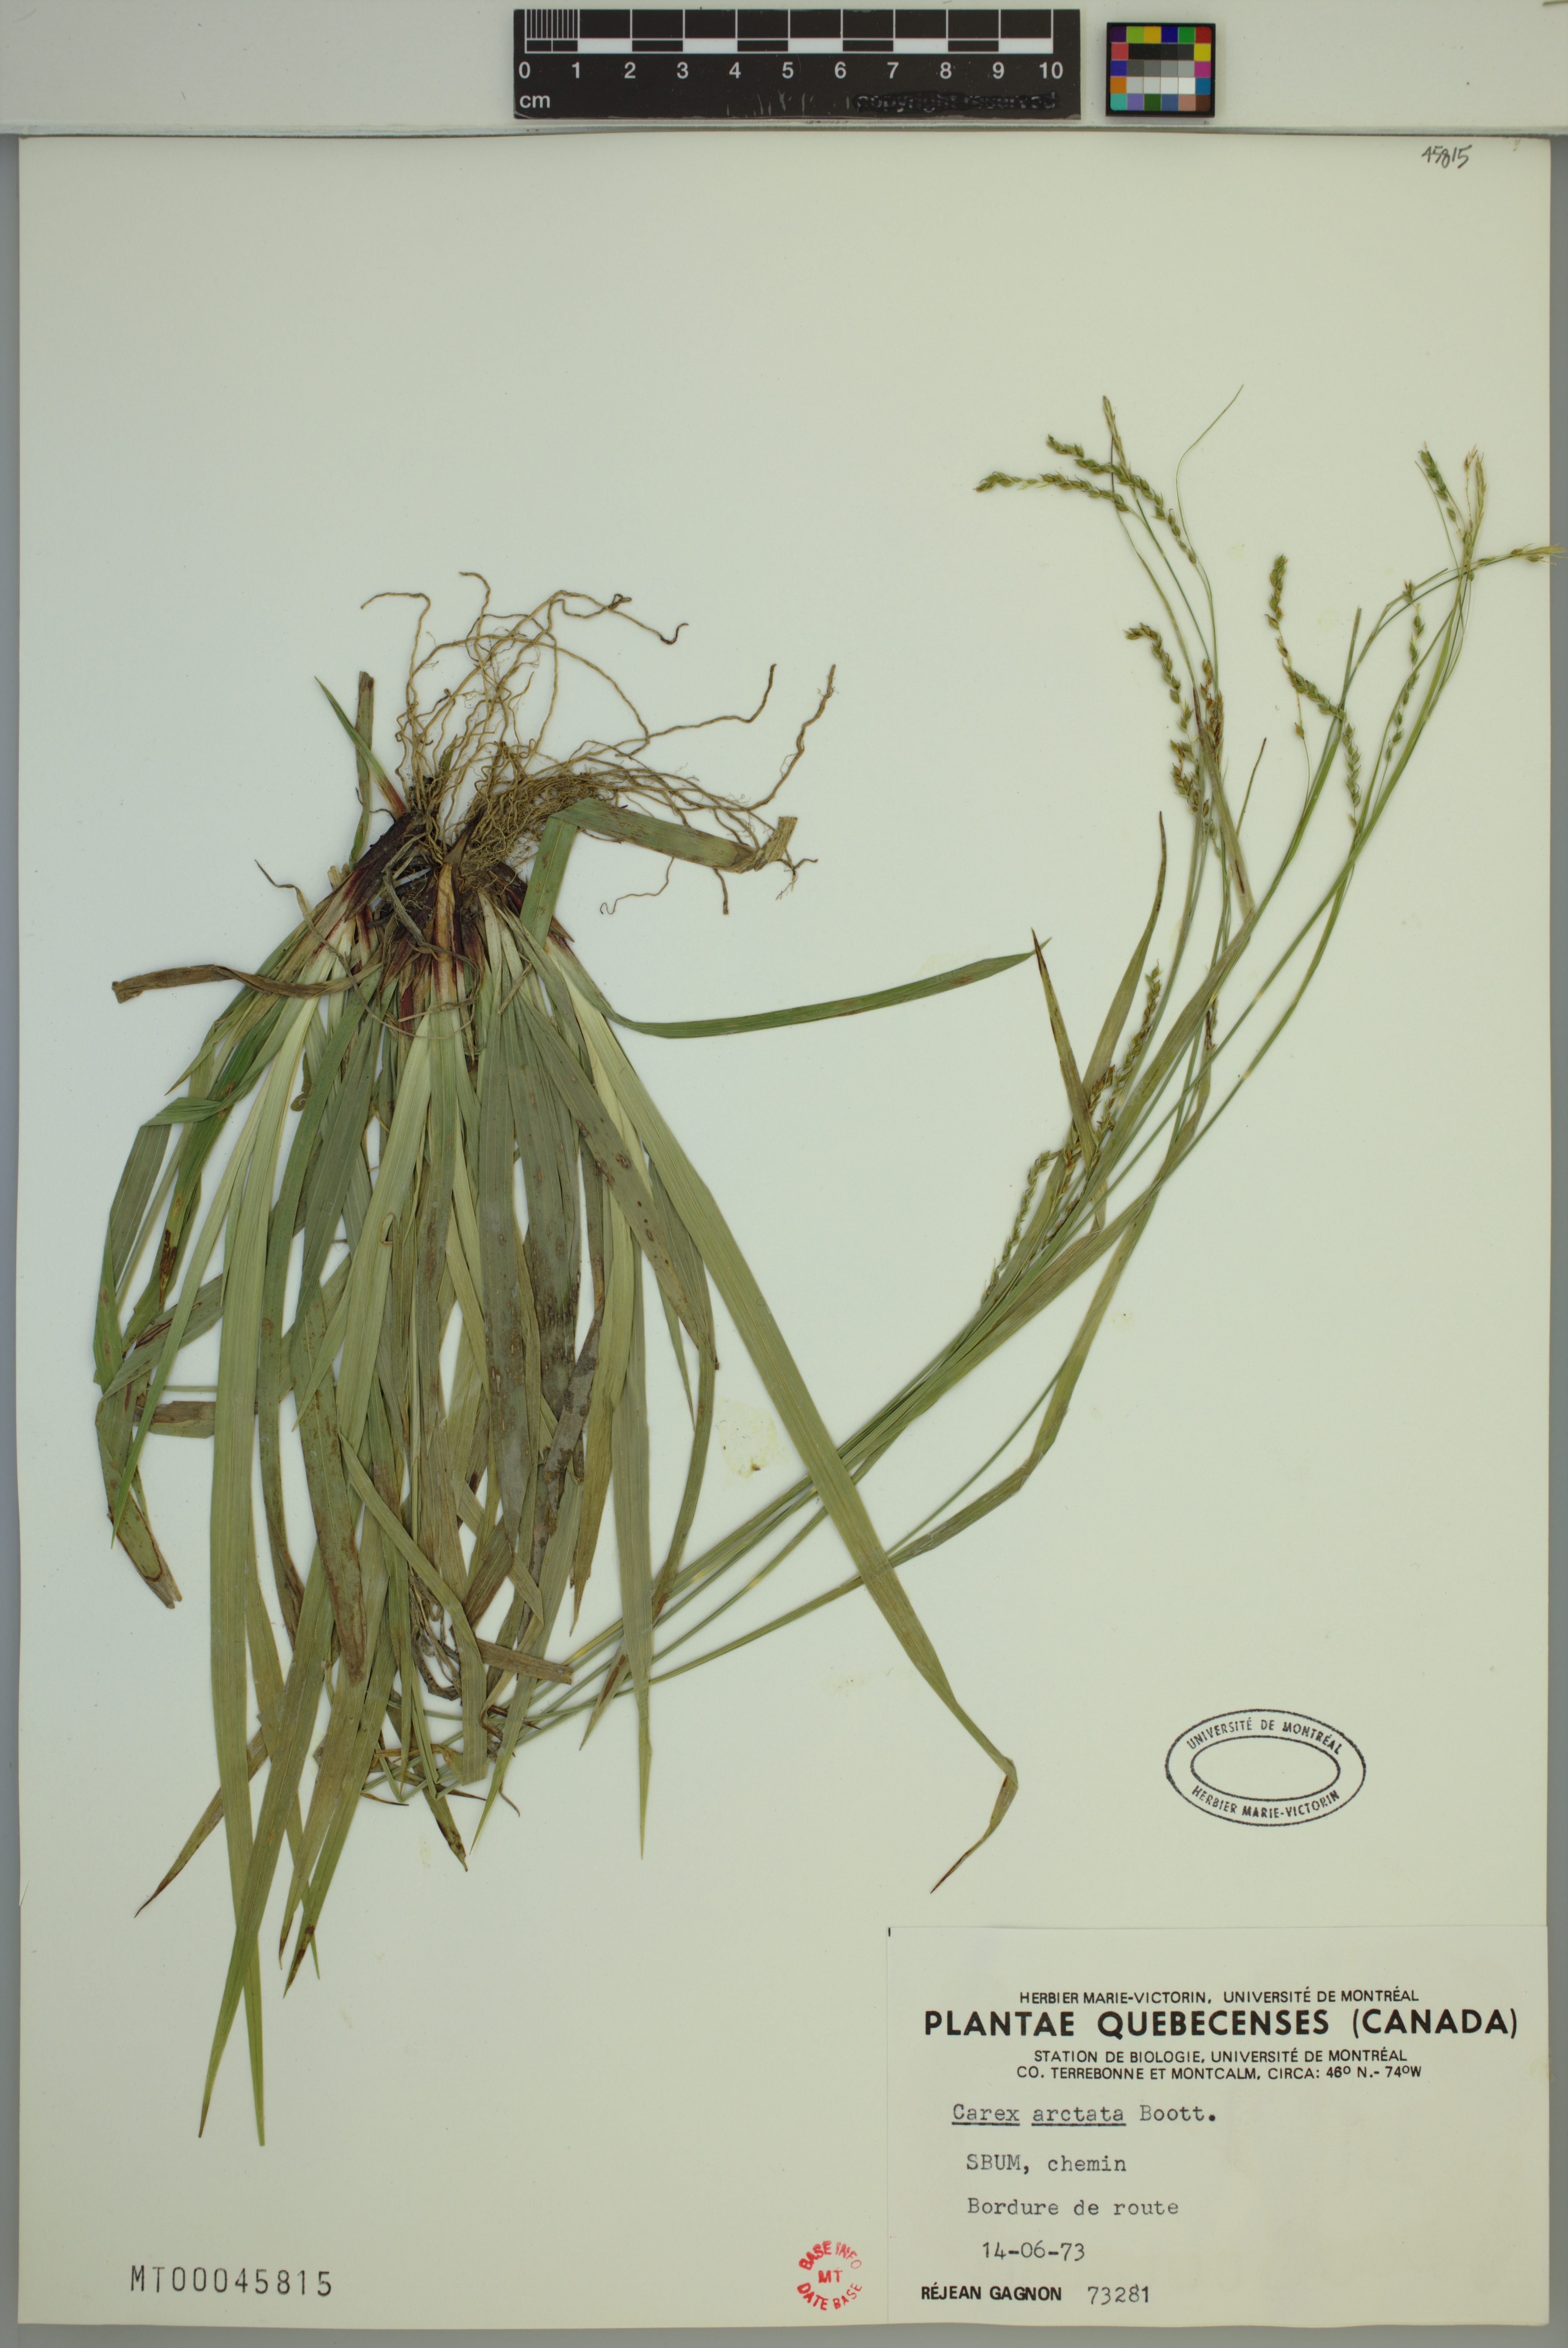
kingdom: Plantae
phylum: Tracheophyta
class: Liliopsida
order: Poales
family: Cyperaceae
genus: Carex
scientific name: Carex arctata
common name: Black sedge
